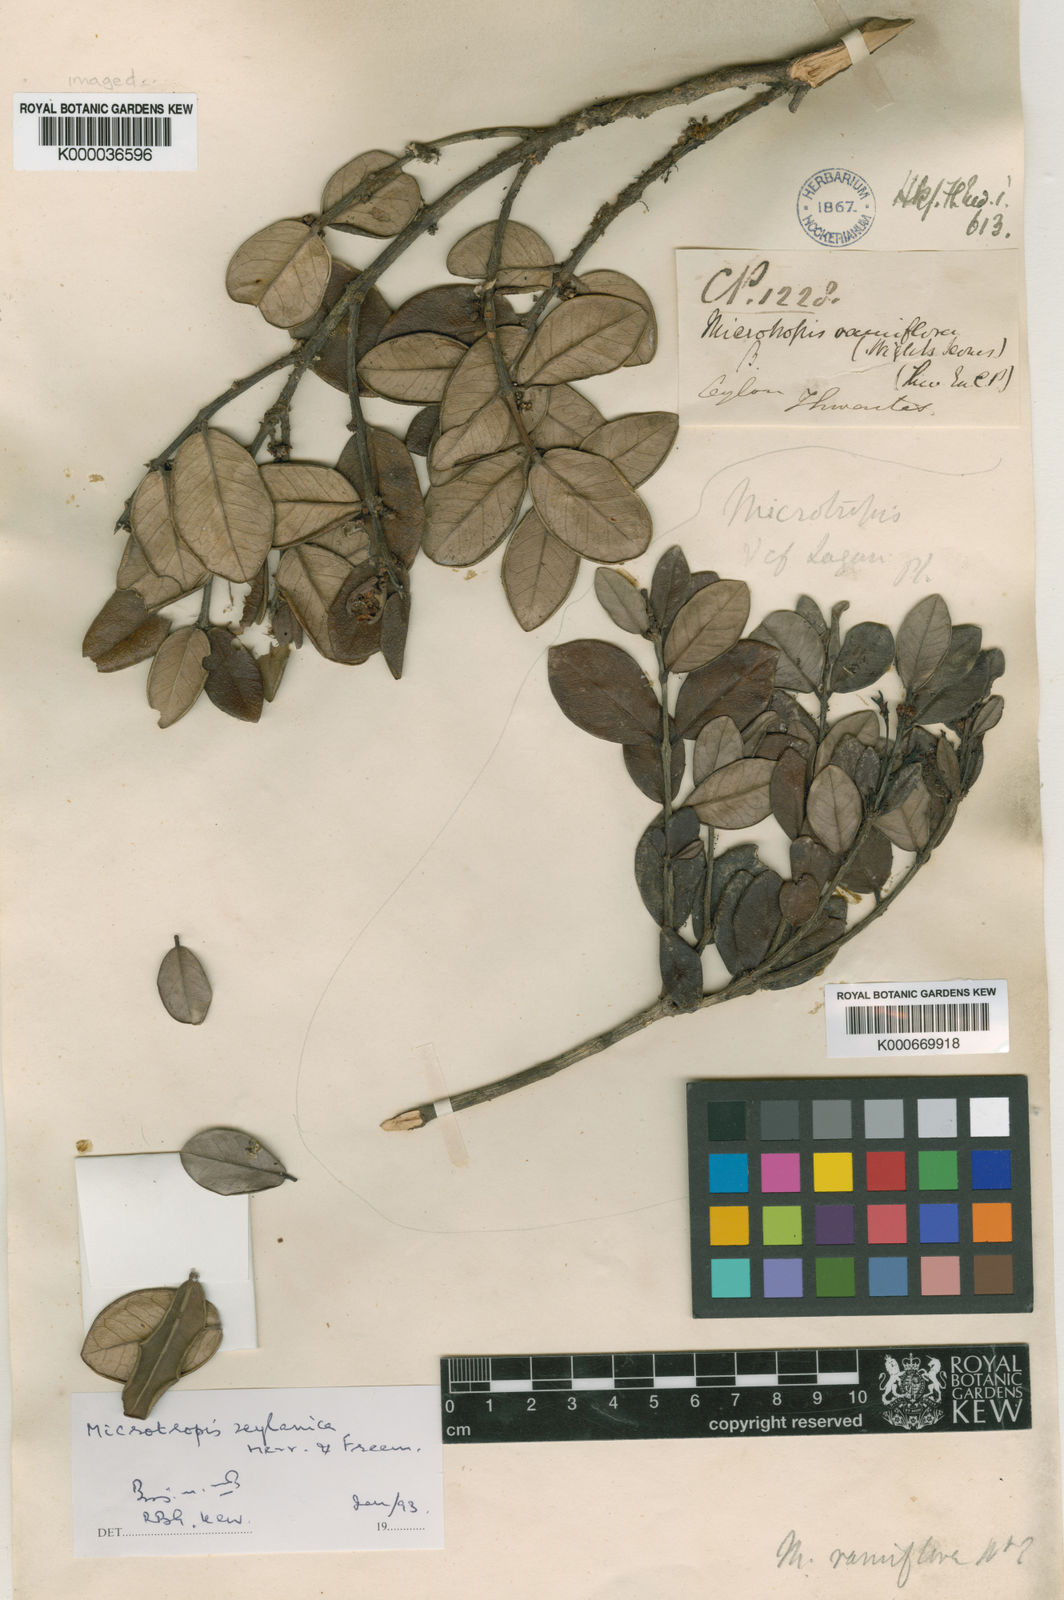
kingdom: Plantae
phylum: Tracheophyta
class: Magnoliopsida
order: Celastrales
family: Celastraceae
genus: Microtropis
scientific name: Microtropis zeylanica
